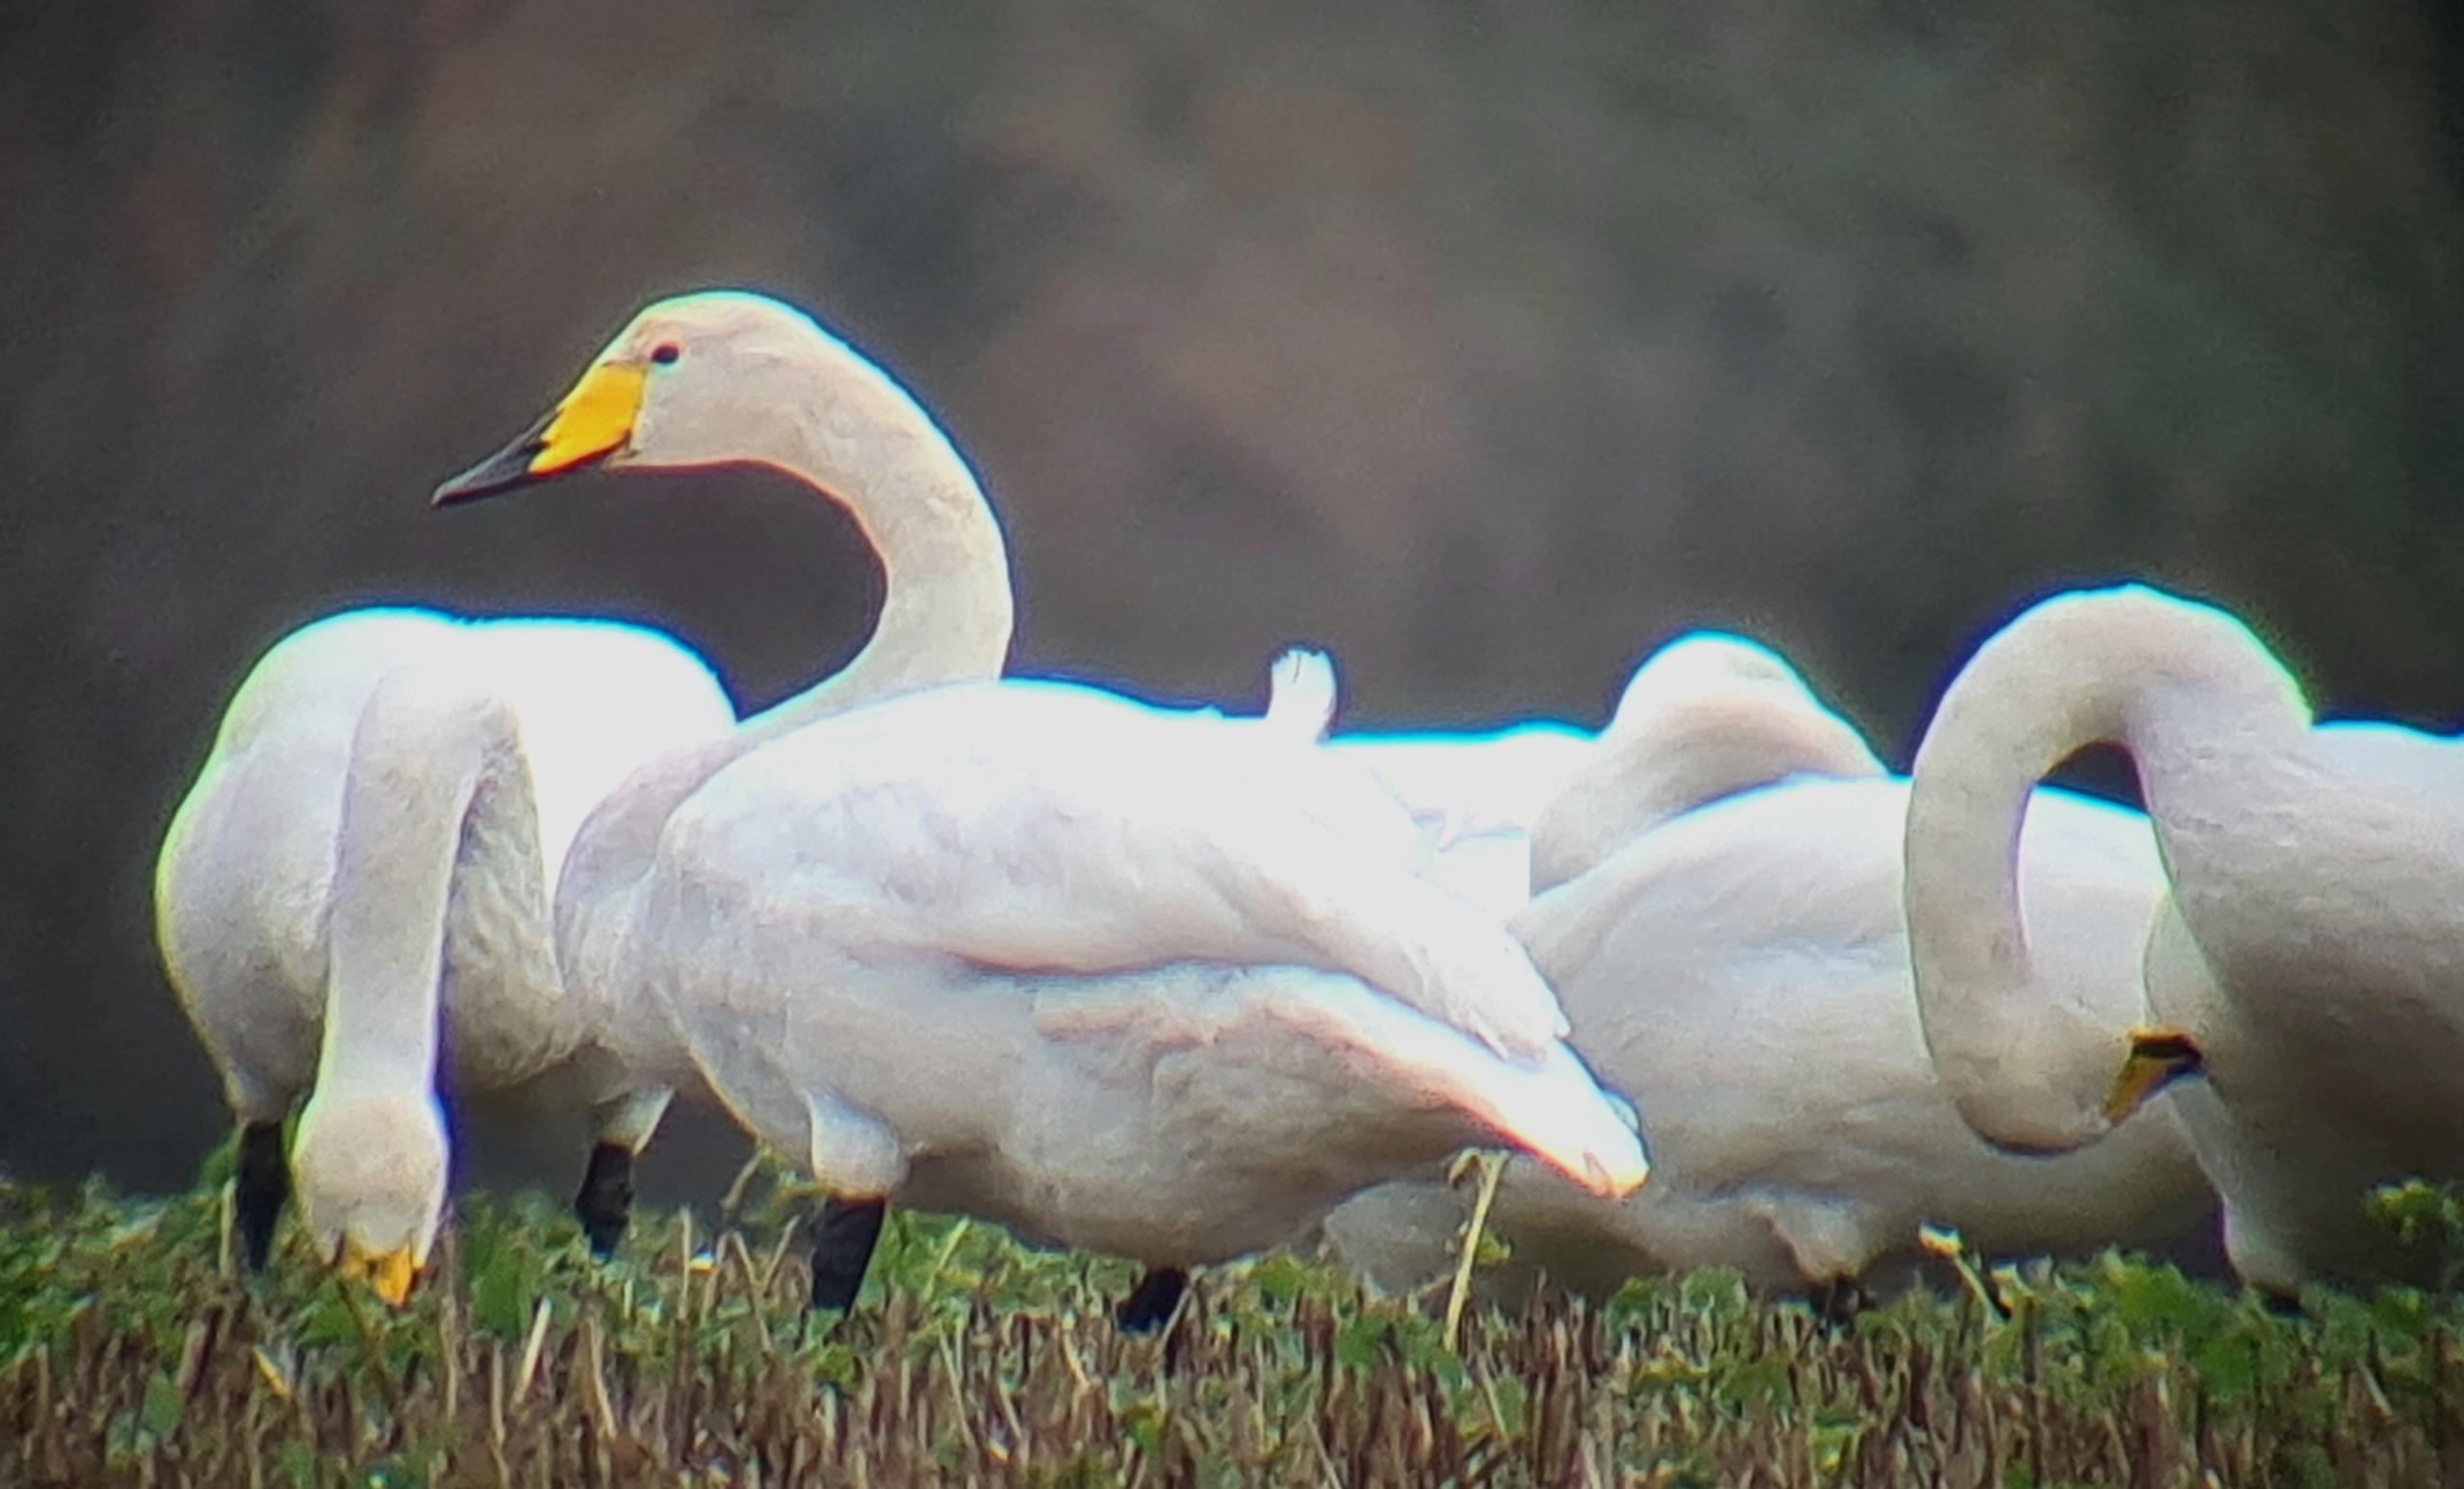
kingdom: Animalia
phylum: Chordata
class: Aves
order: Anseriformes
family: Anatidae
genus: Cygnus
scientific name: Cygnus cygnus
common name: Sangsvane
